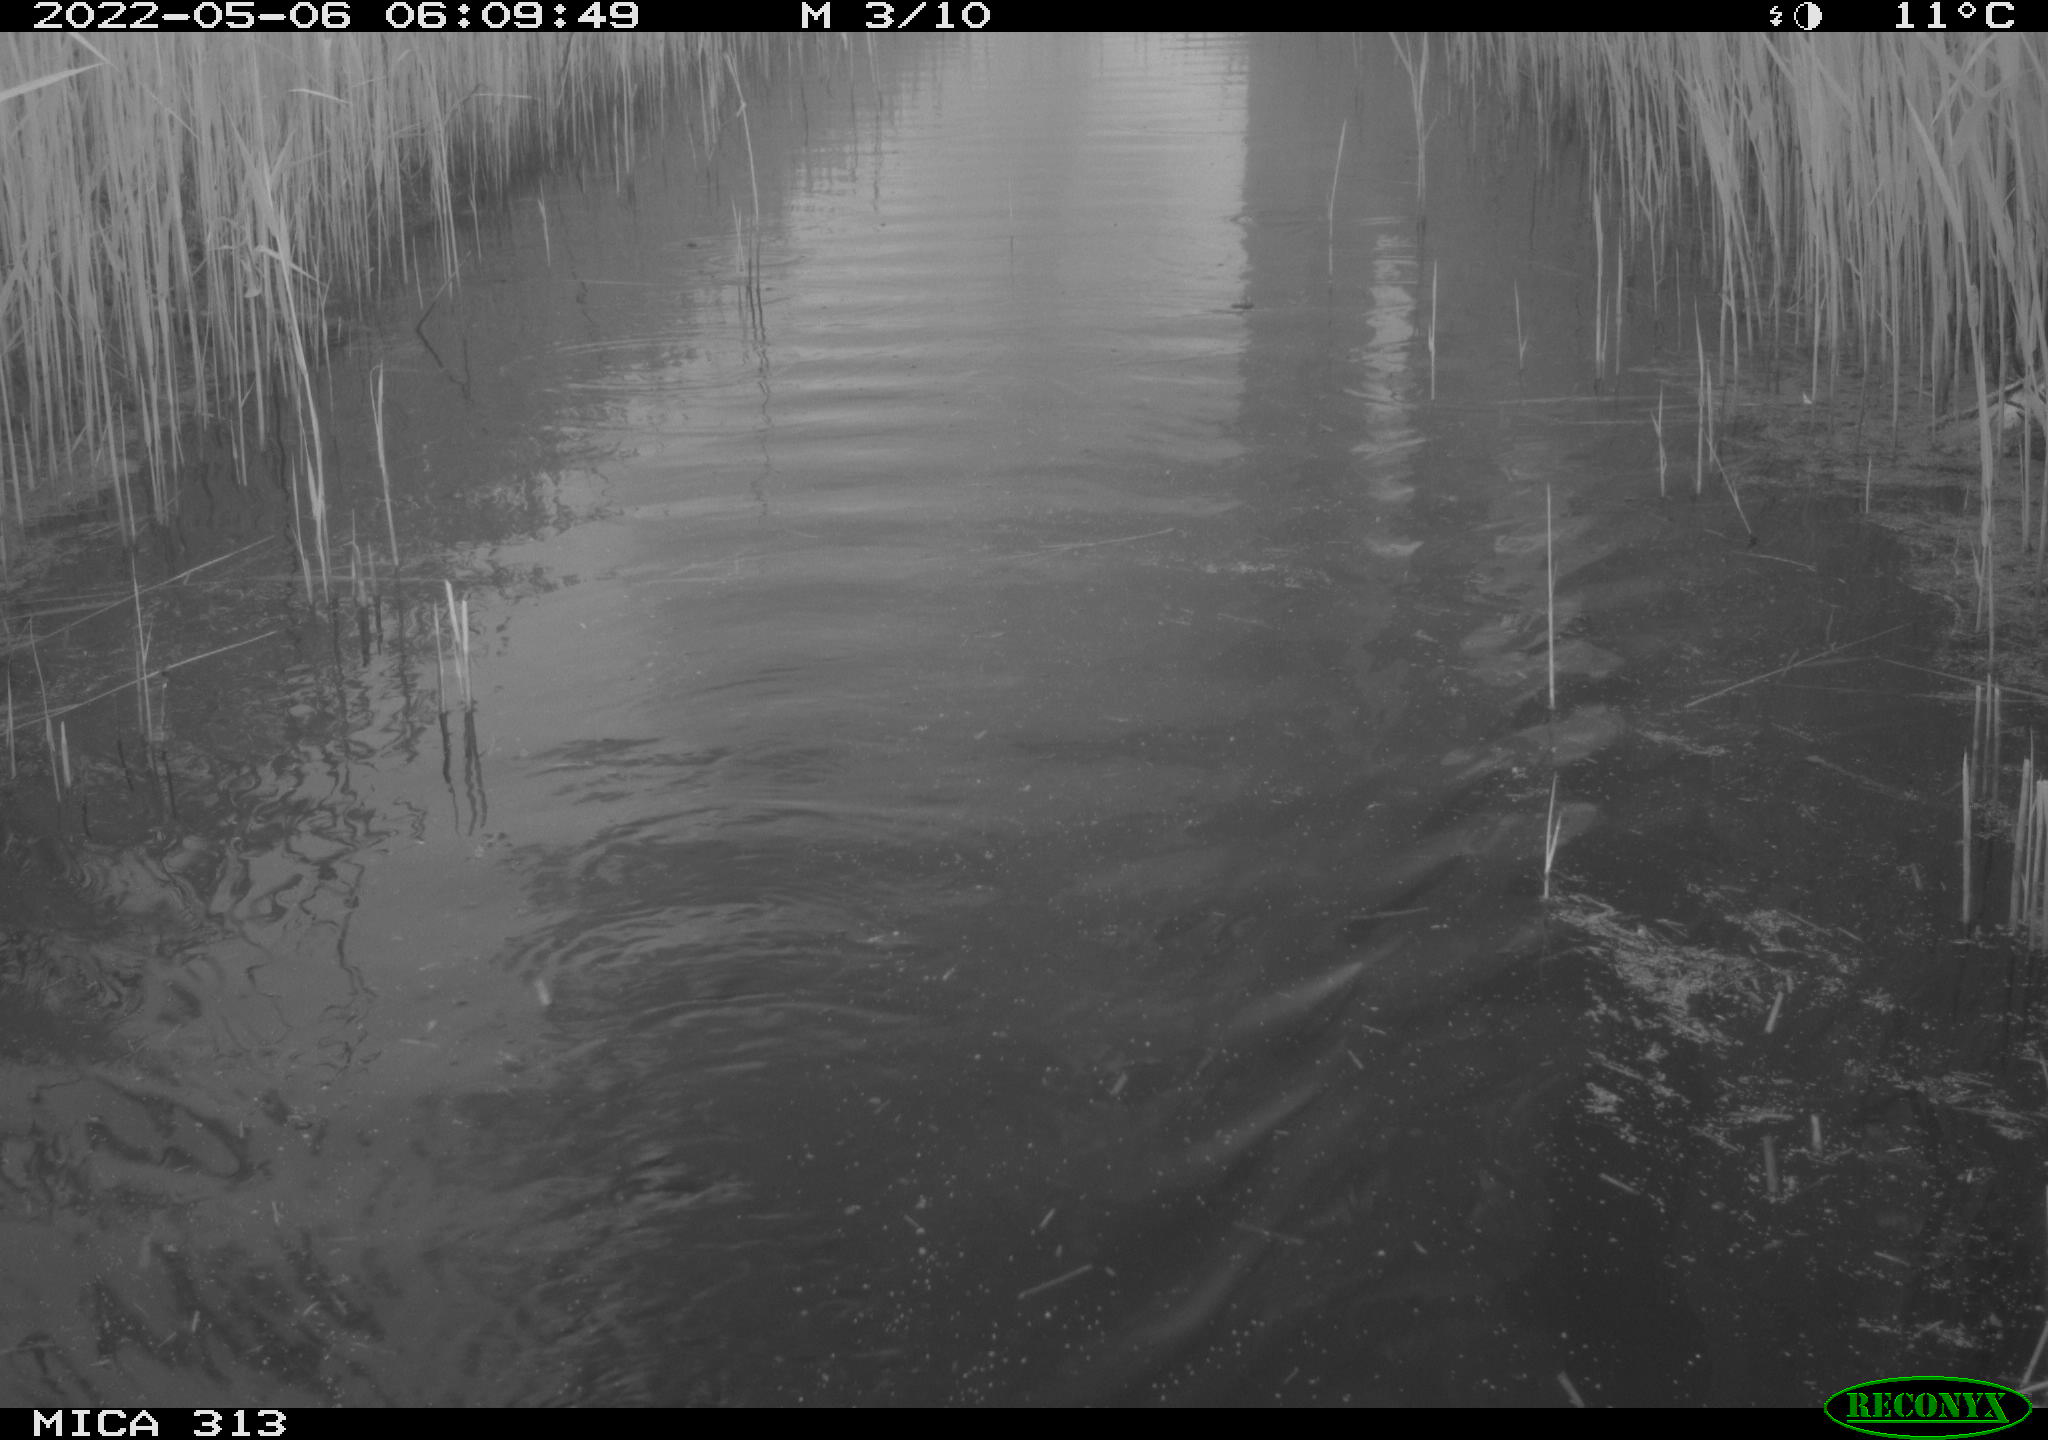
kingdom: Animalia
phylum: Chordata
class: Aves
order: Anseriformes
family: Anatidae
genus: Anas
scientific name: Anas platyrhynchos
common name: Mallard
